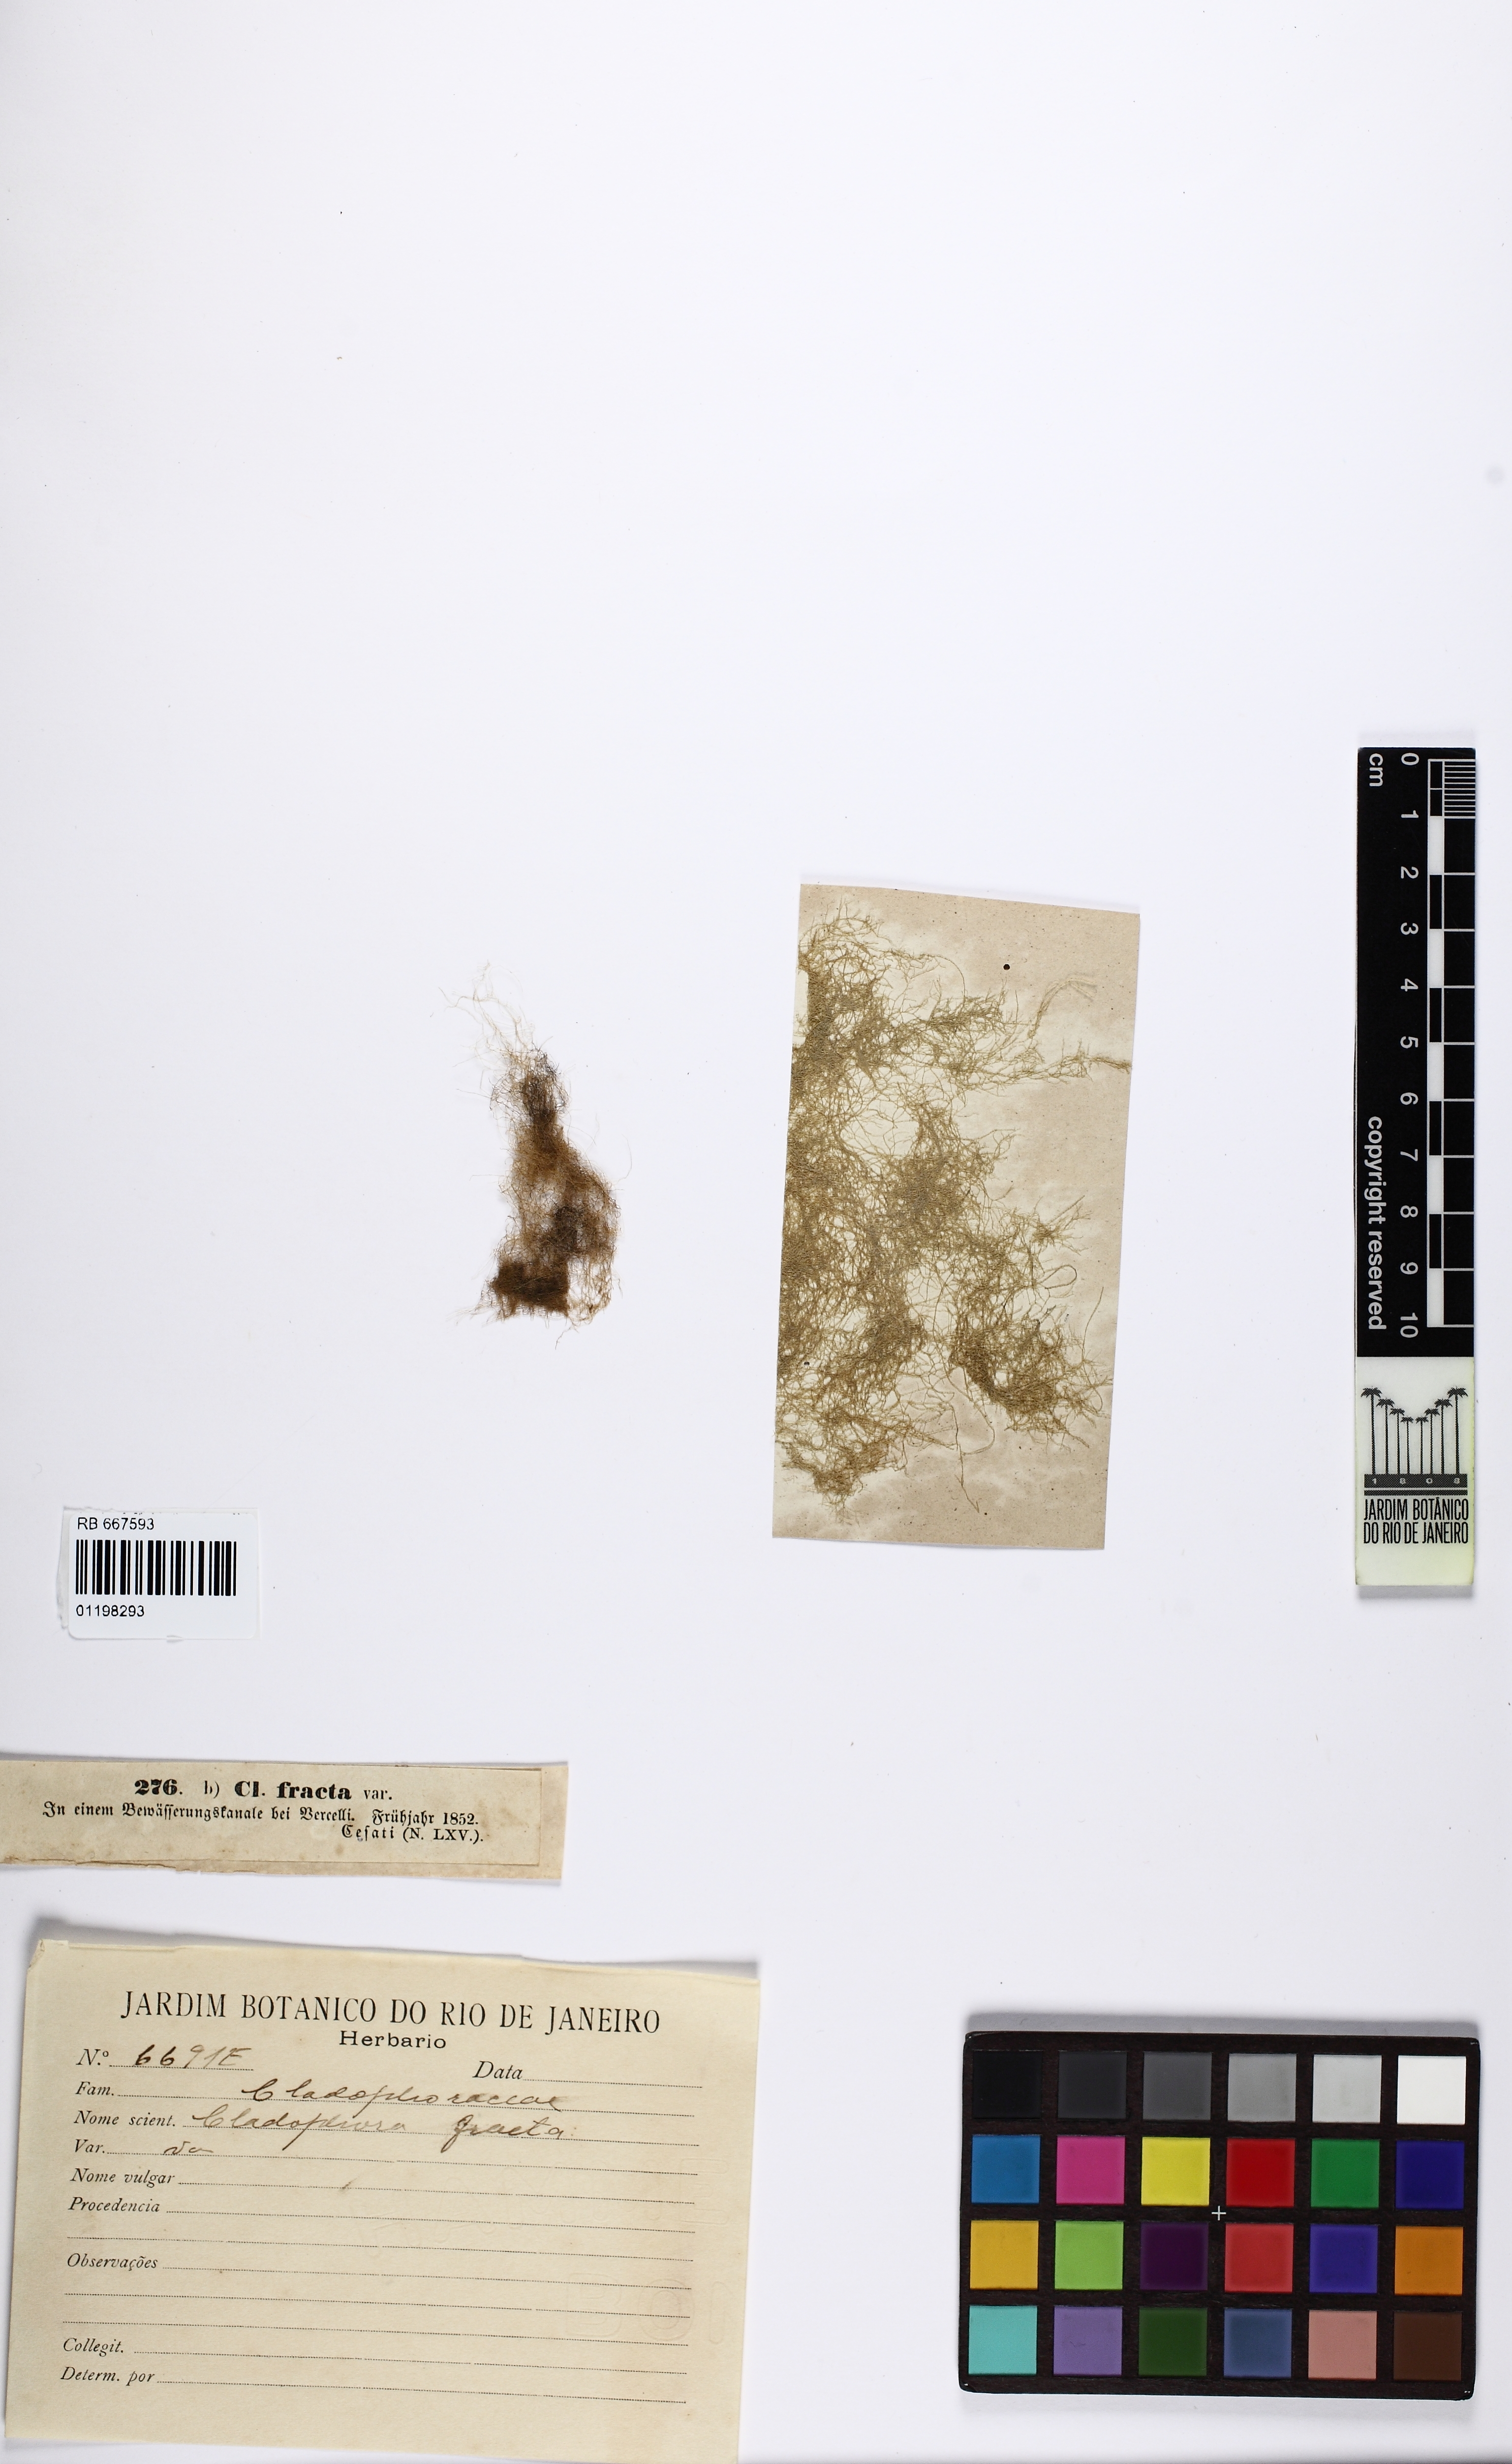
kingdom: Plantae
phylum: Chlorophyta
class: Ulvophyceae
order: Cladophorales
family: Cladophoraceae
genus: Cladophora
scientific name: Cladophora fracta
